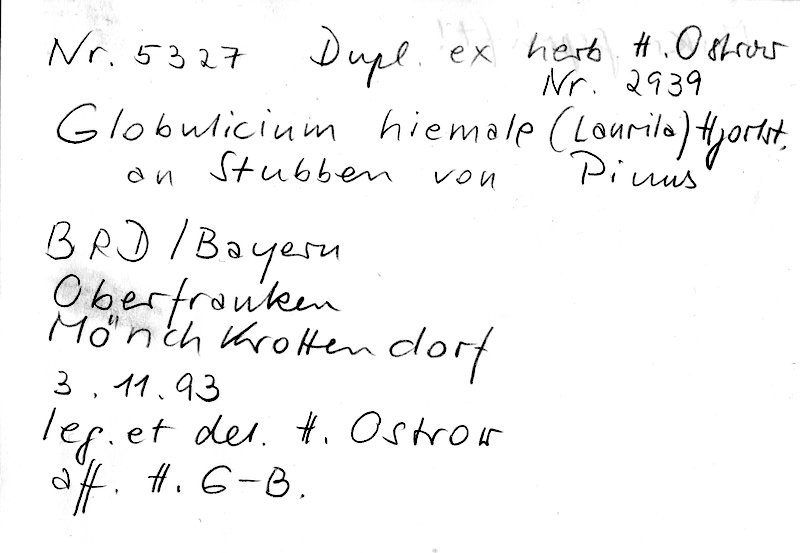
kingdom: Fungi
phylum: Basidiomycota
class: Agaricomycetes
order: Hymenochaetales
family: Rickenellaceae
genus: Globulicium
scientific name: Globulicium hiemale
